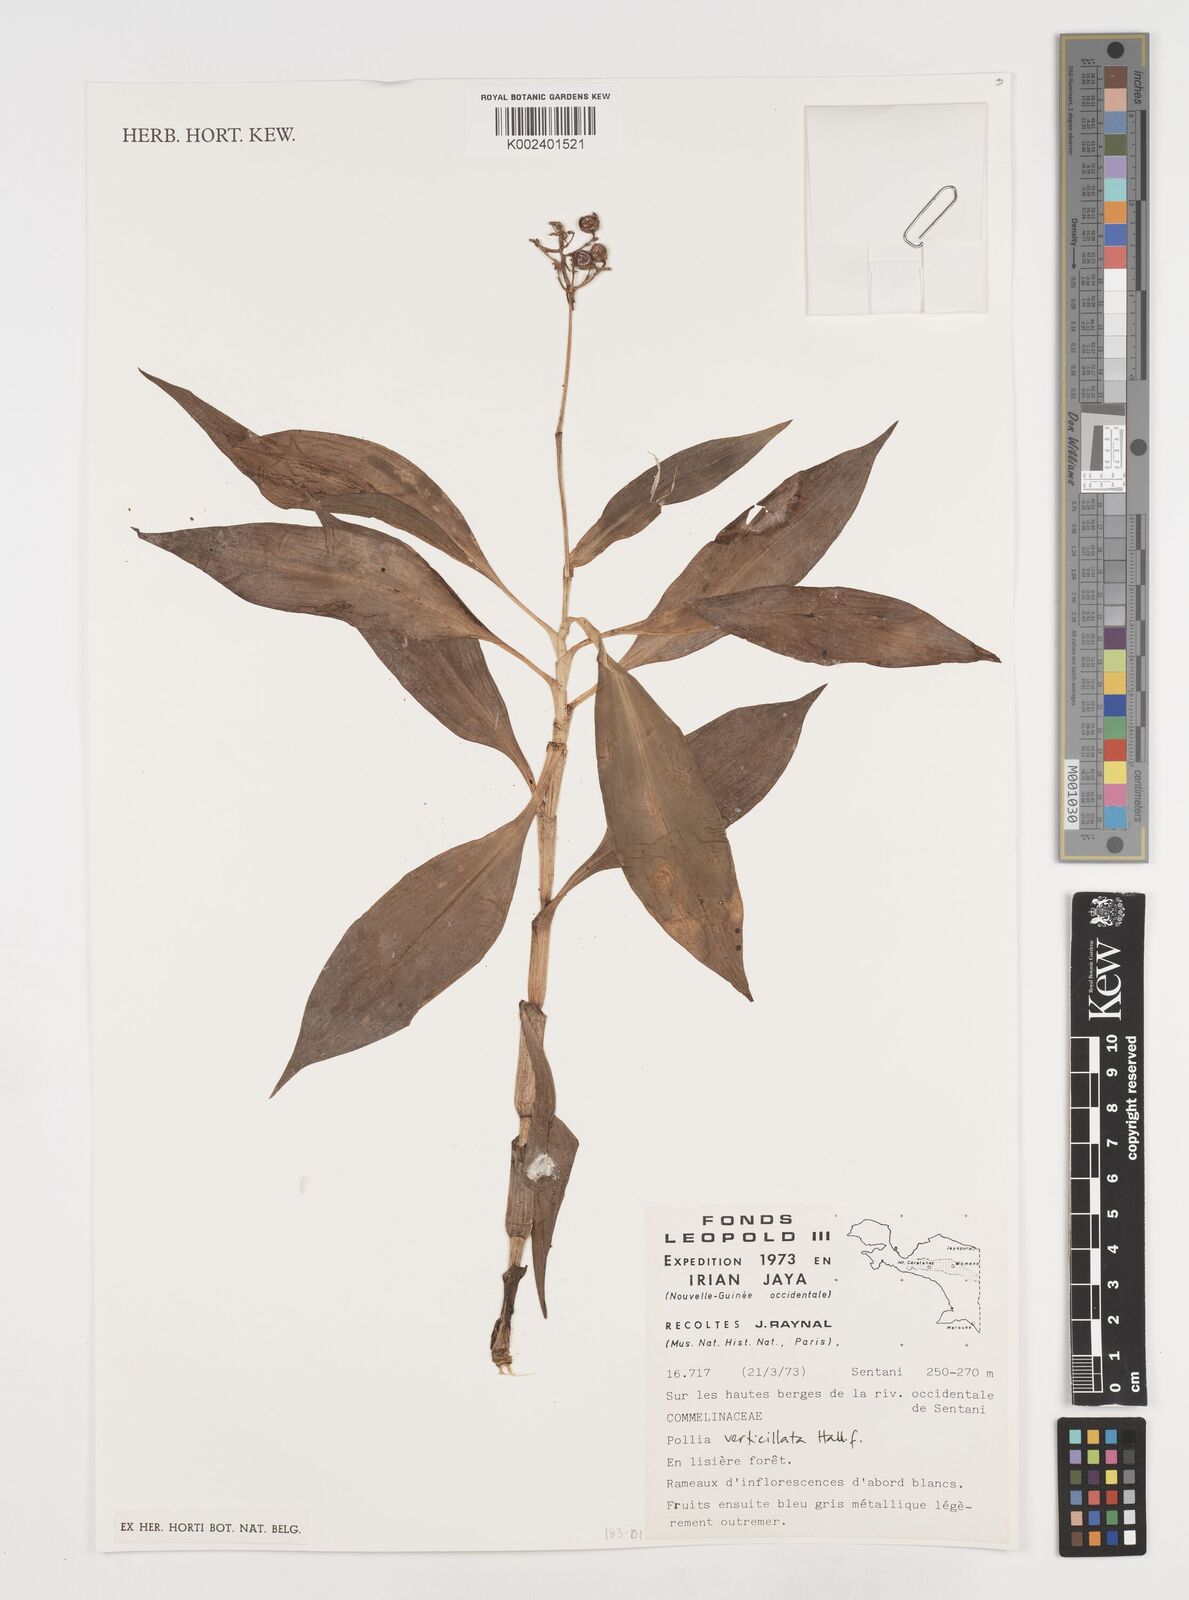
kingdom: Plantae
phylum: Tracheophyta
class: Liliopsida
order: Commelinales
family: Commelinaceae
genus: Pollia
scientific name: Pollia verticillata
